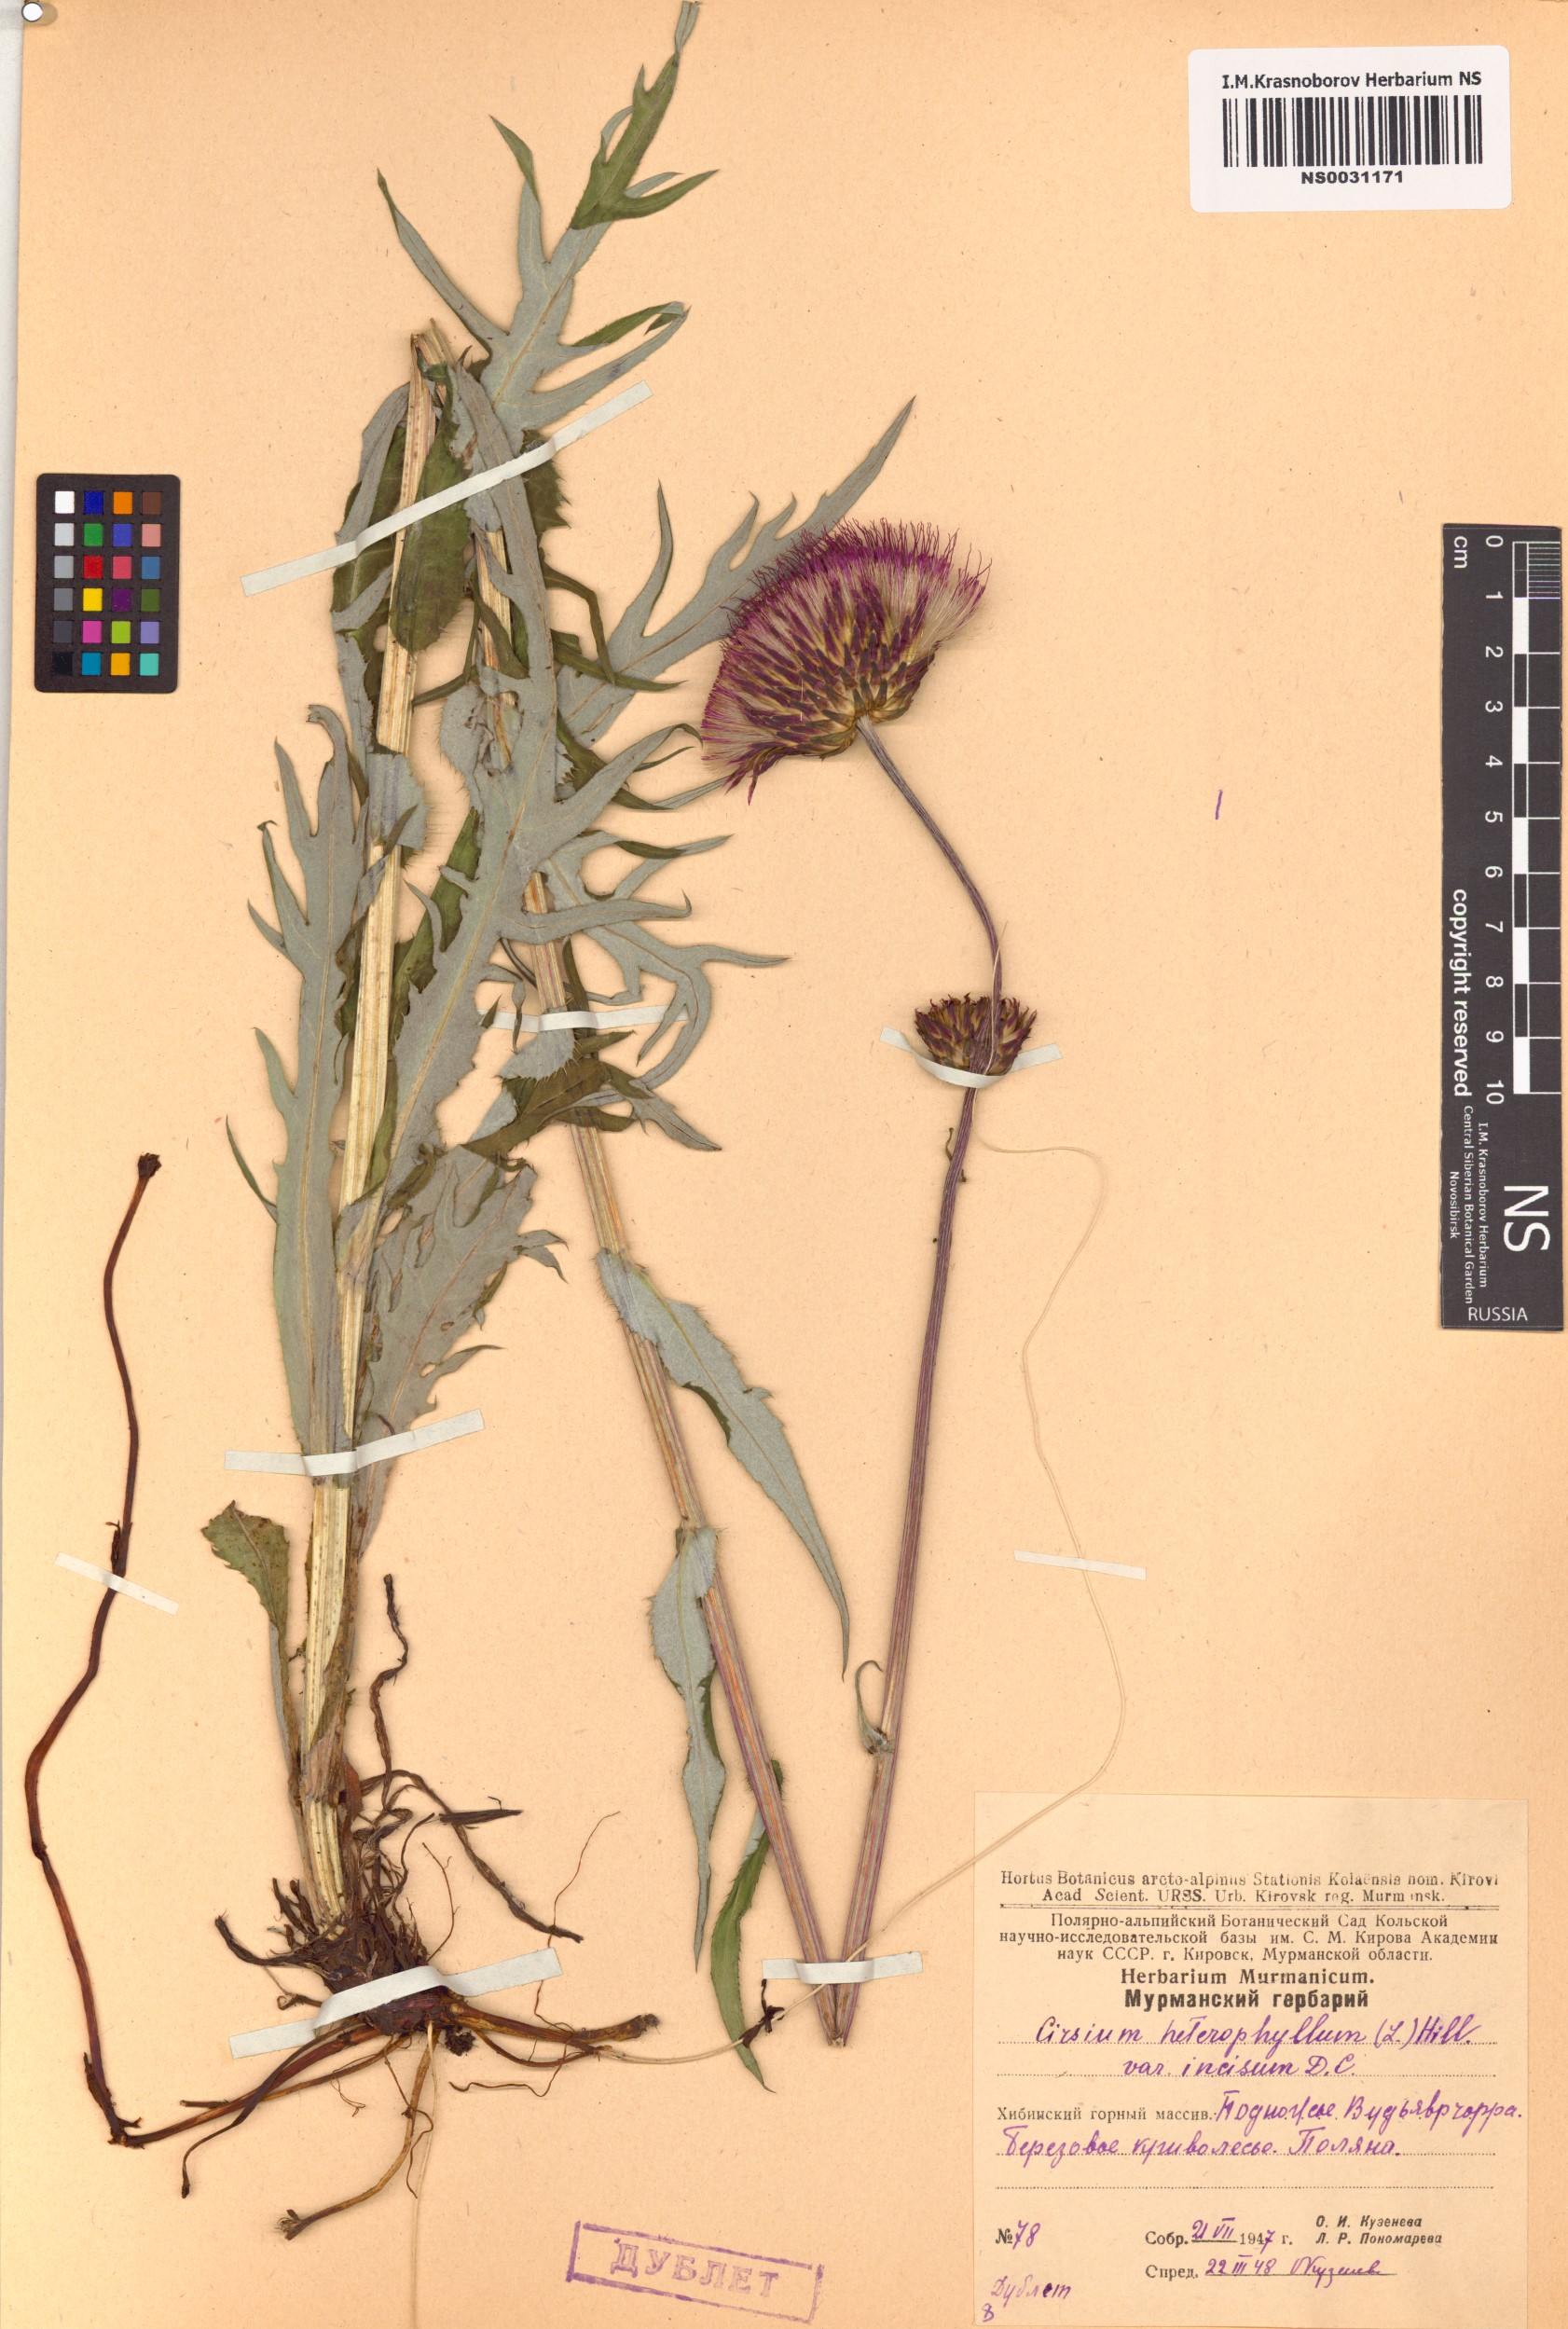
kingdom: Plantae
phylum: Tracheophyta
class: Magnoliopsida
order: Asterales
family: Asteraceae
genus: Cirsium
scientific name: Cirsium heterophyllum
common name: Melancholy thistle
